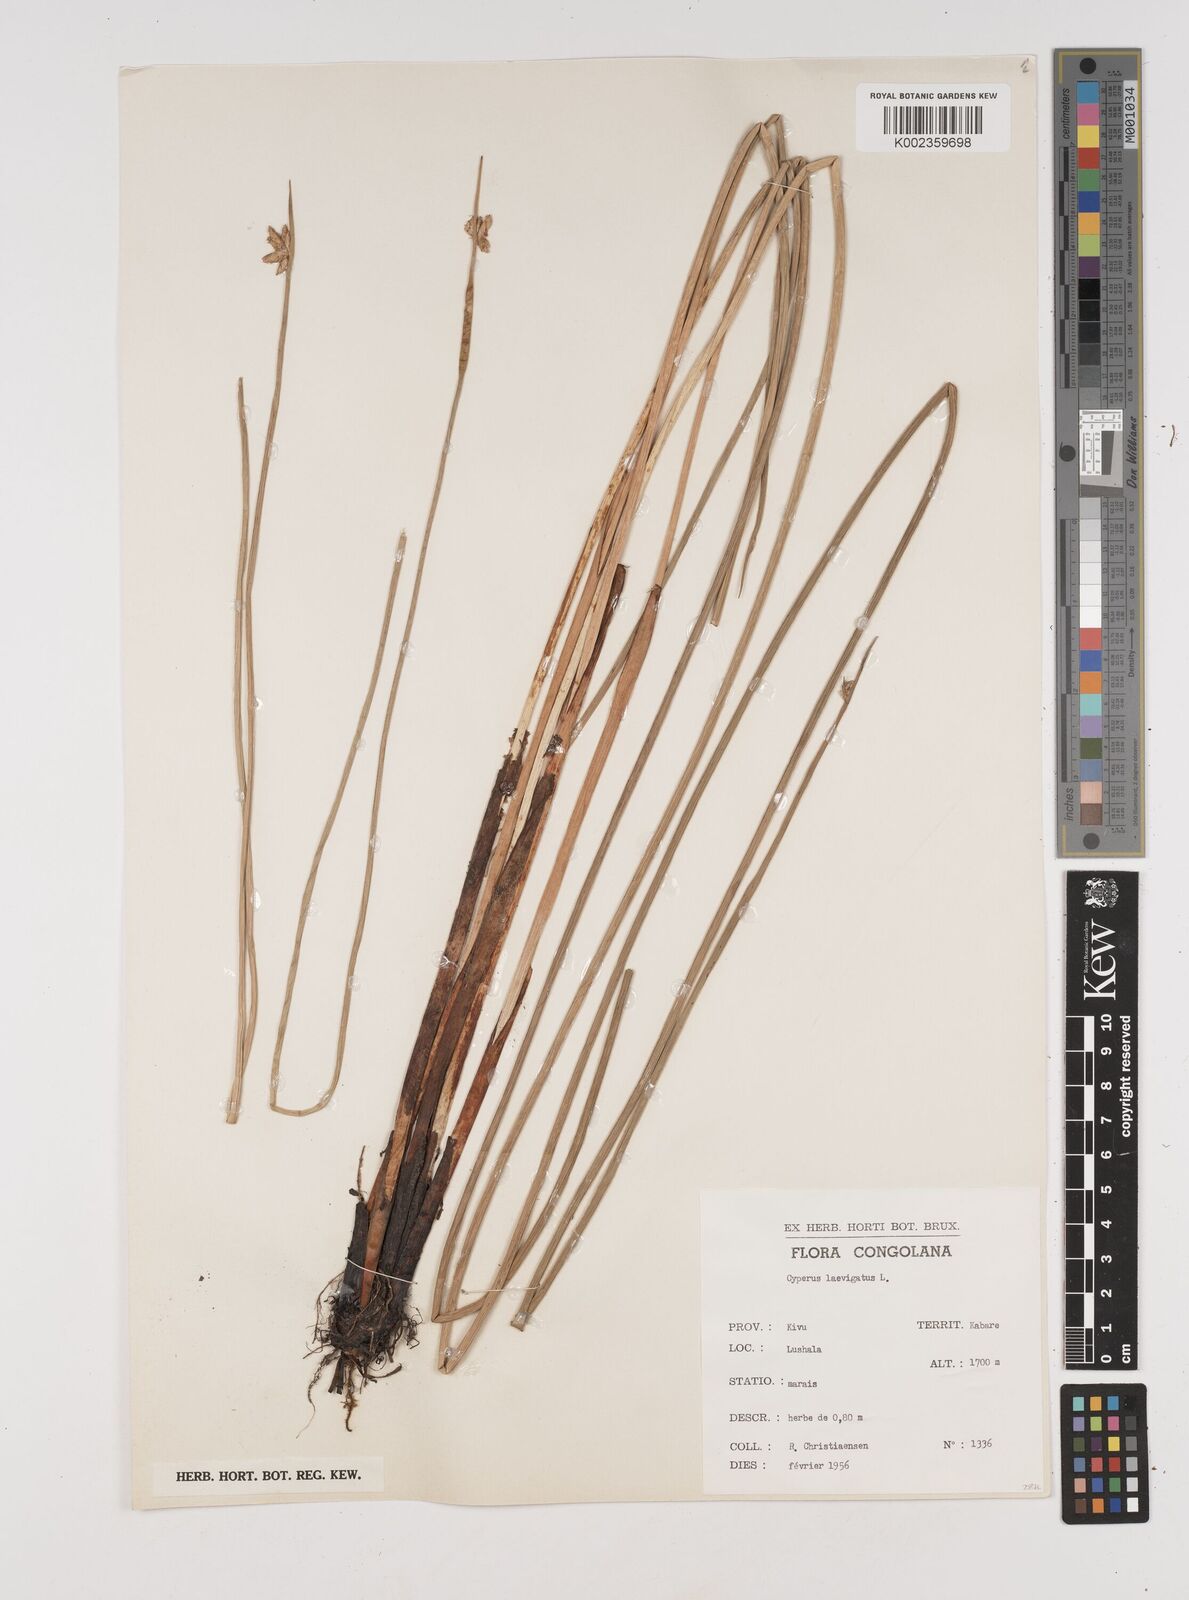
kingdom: Plantae
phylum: Tracheophyta
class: Liliopsida
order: Poales
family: Cyperaceae
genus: Cyperus
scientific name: Cyperus laevigatus
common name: Smooth flat sedge
